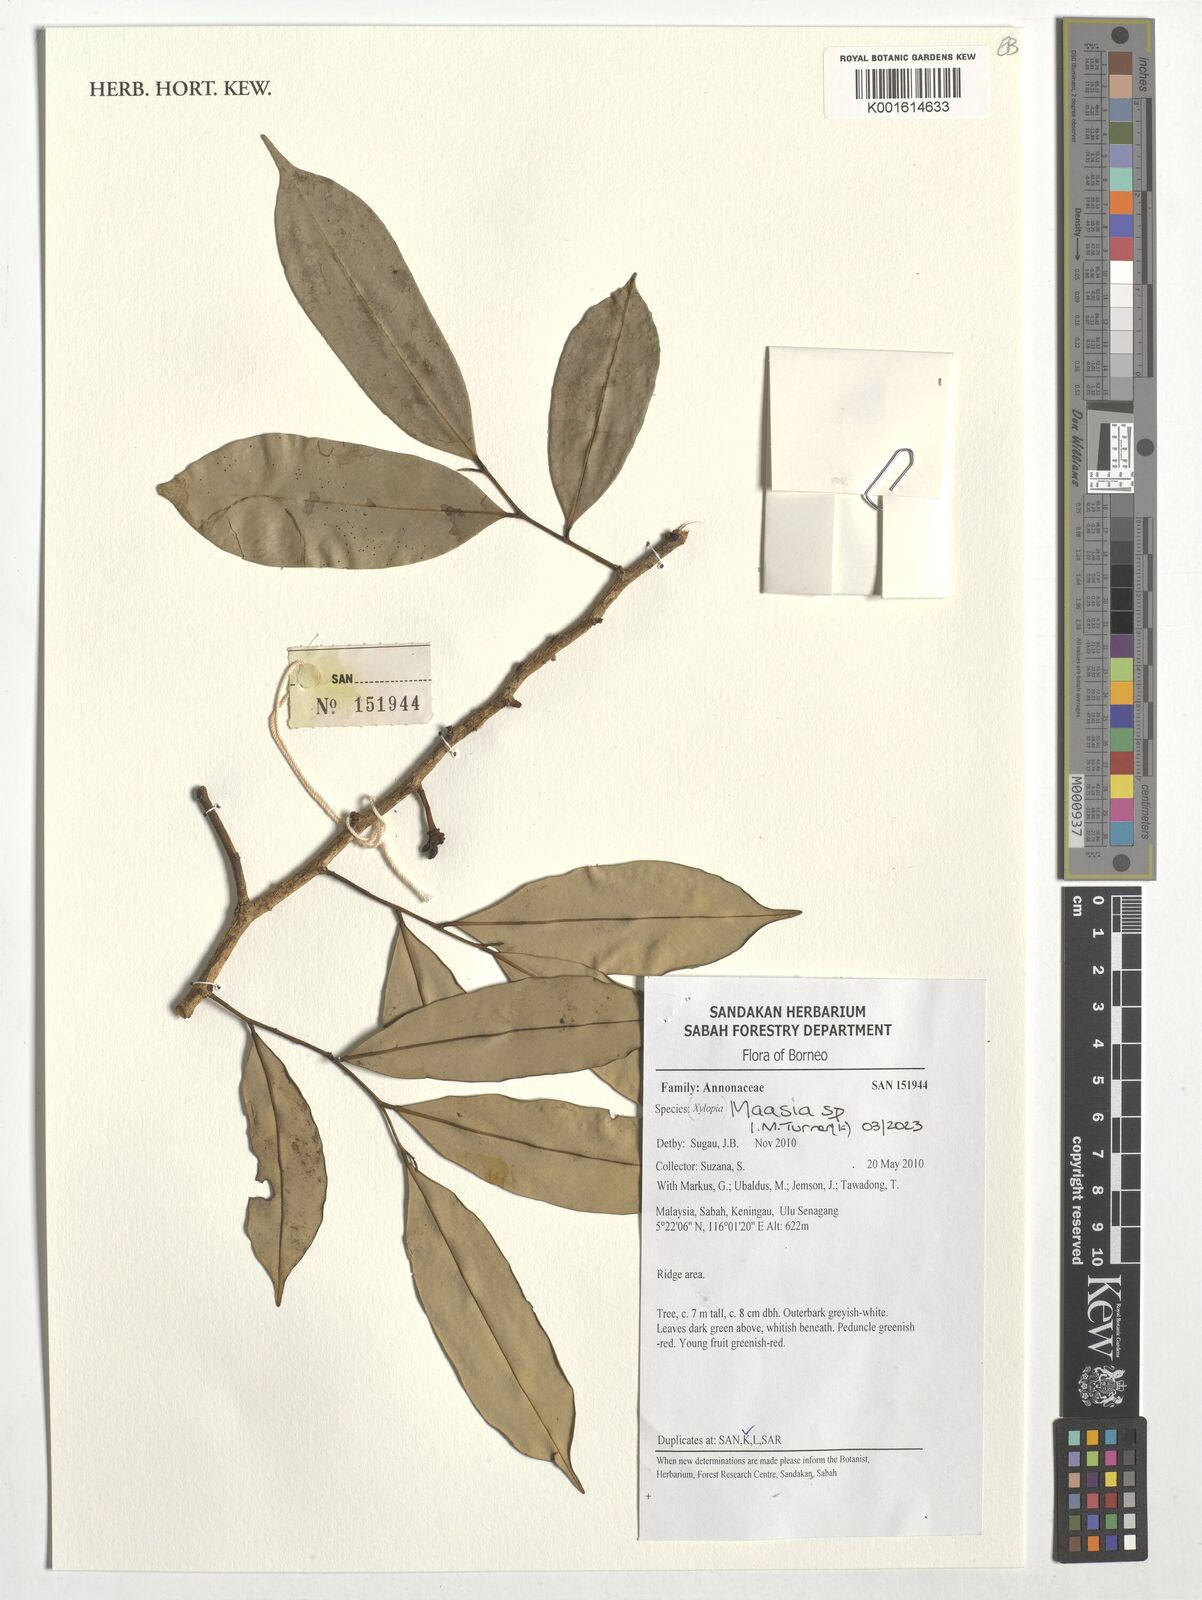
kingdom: Plantae
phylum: Tracheophyta
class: Magnoliopsida
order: Magnoliales
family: Annonaceae
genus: Maasia
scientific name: Maasia
